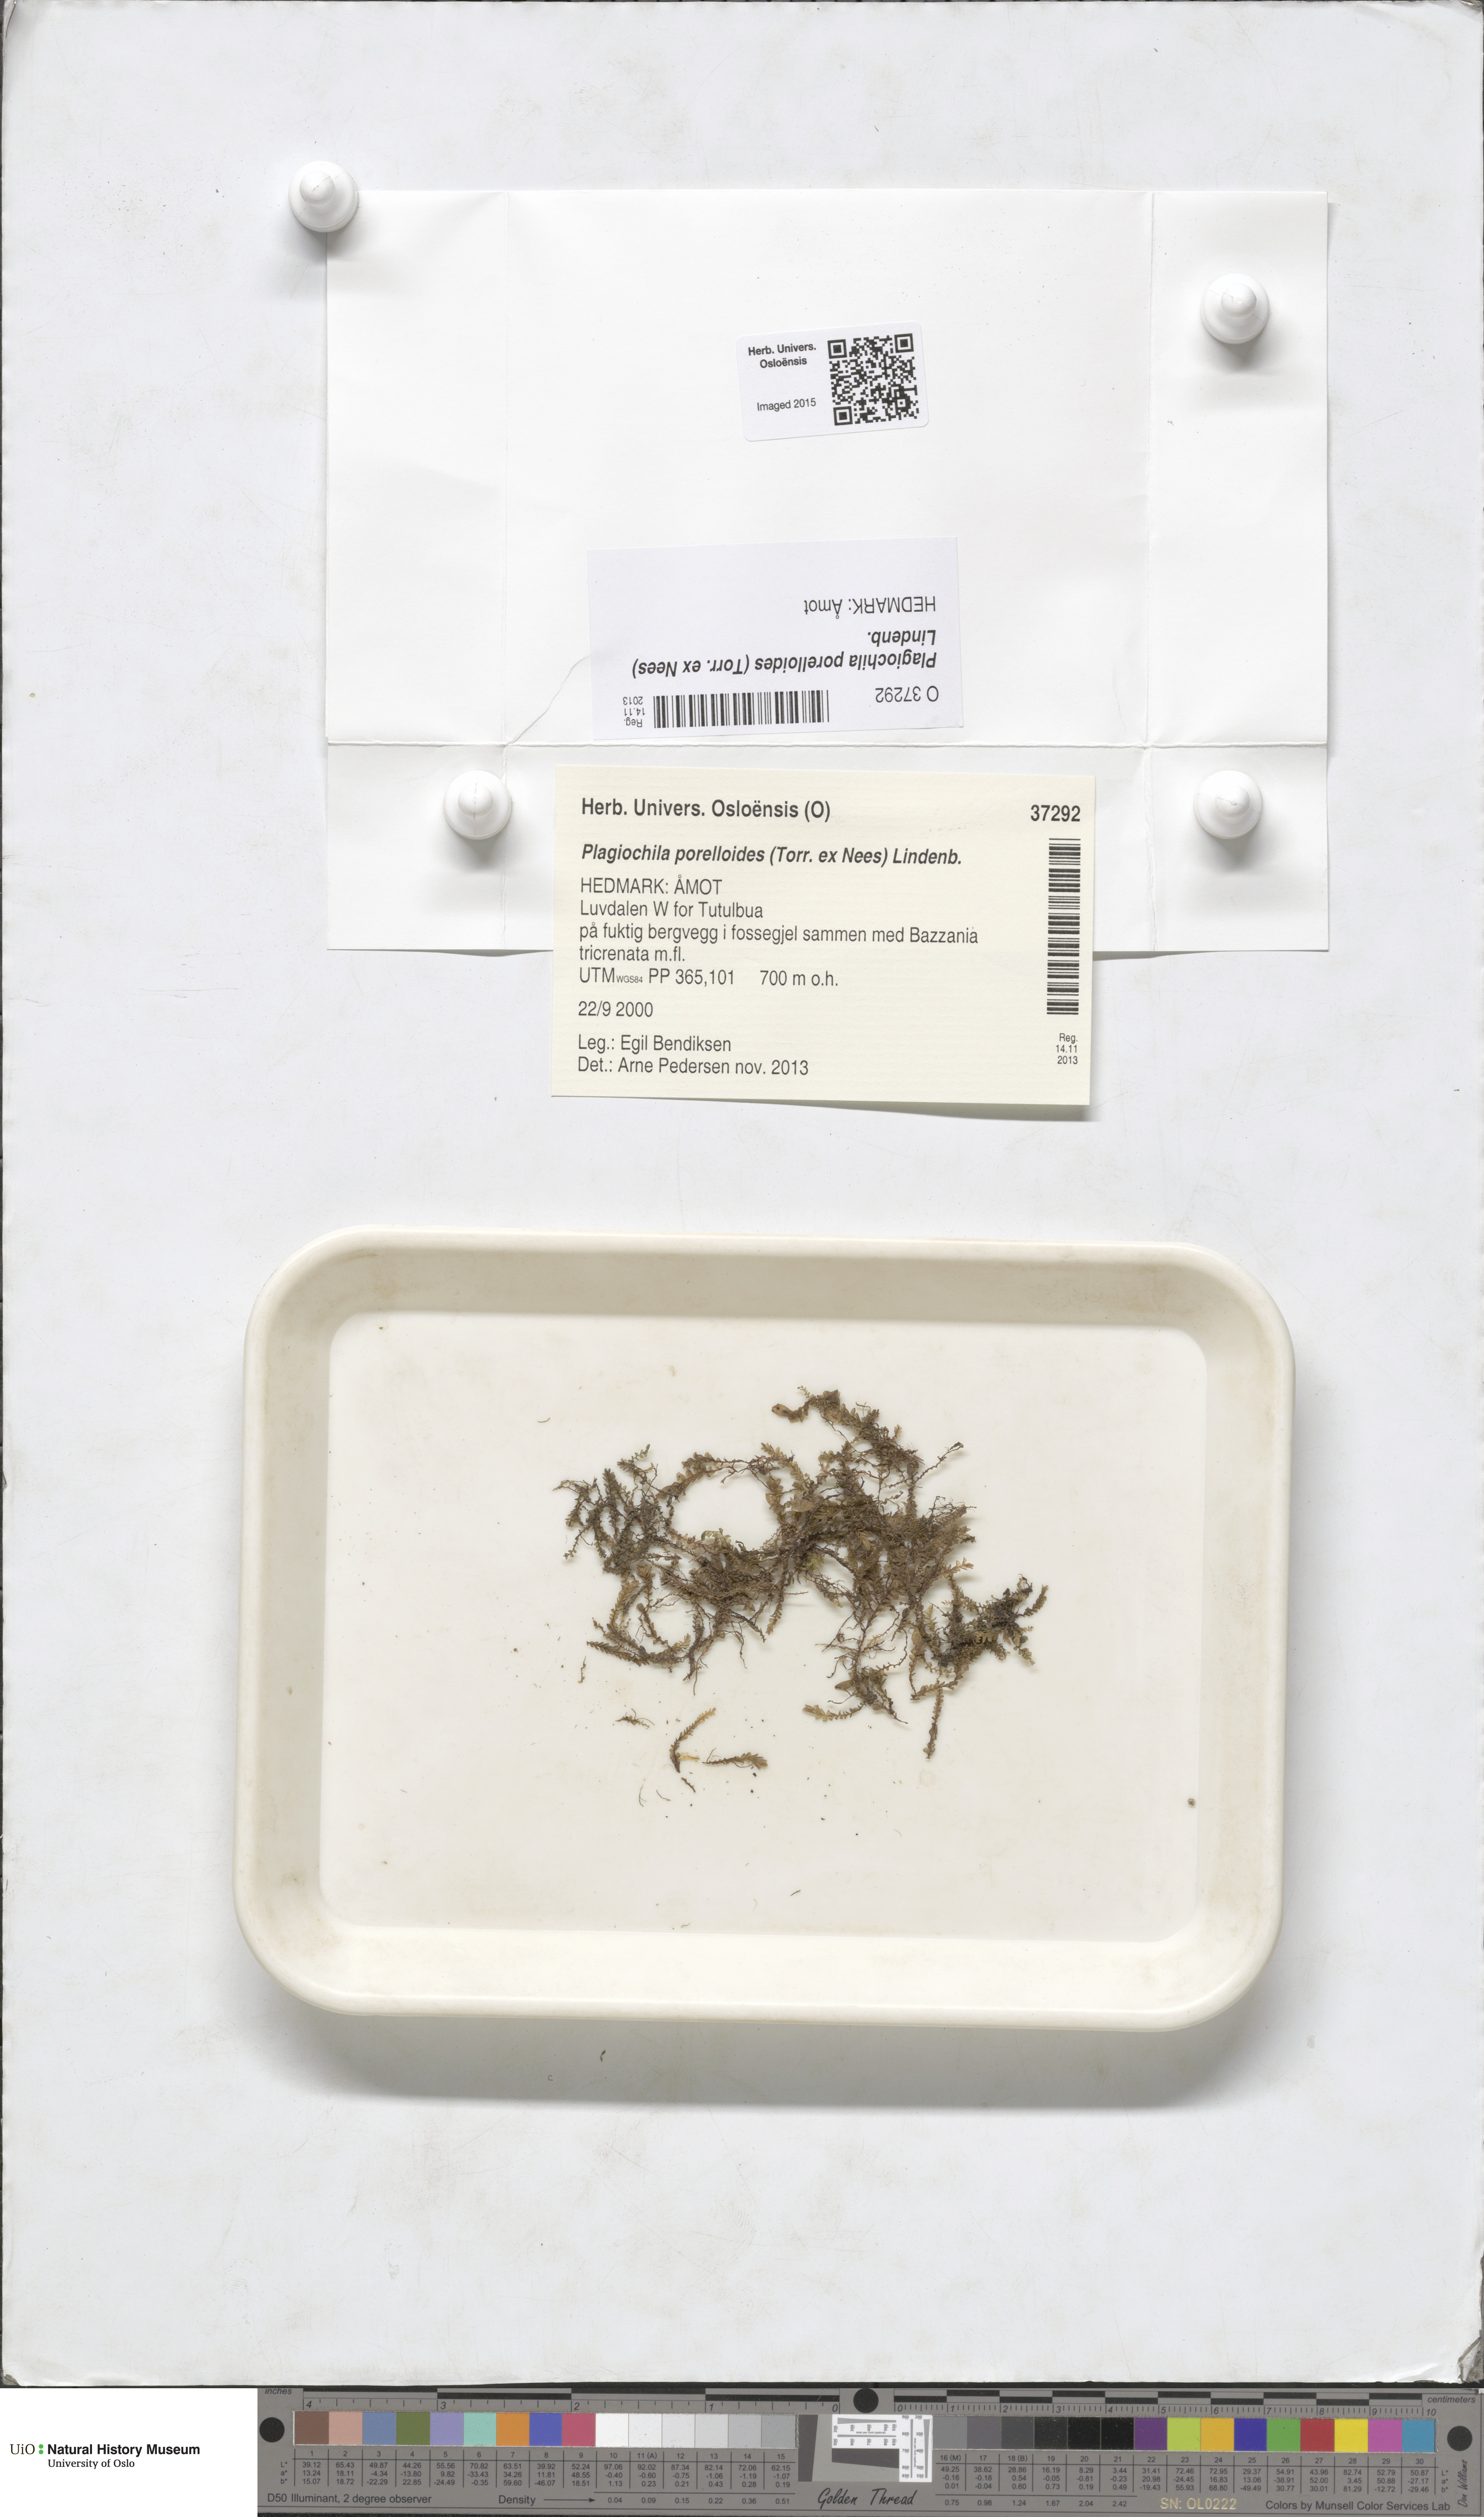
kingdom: Plantae
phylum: Marchantiophyta
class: Jungermanniopsida
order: Jungermanniales
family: Plagiochilaceae
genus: Plagiochila
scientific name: Plagiochila porelloides
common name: Lesser featherwort
